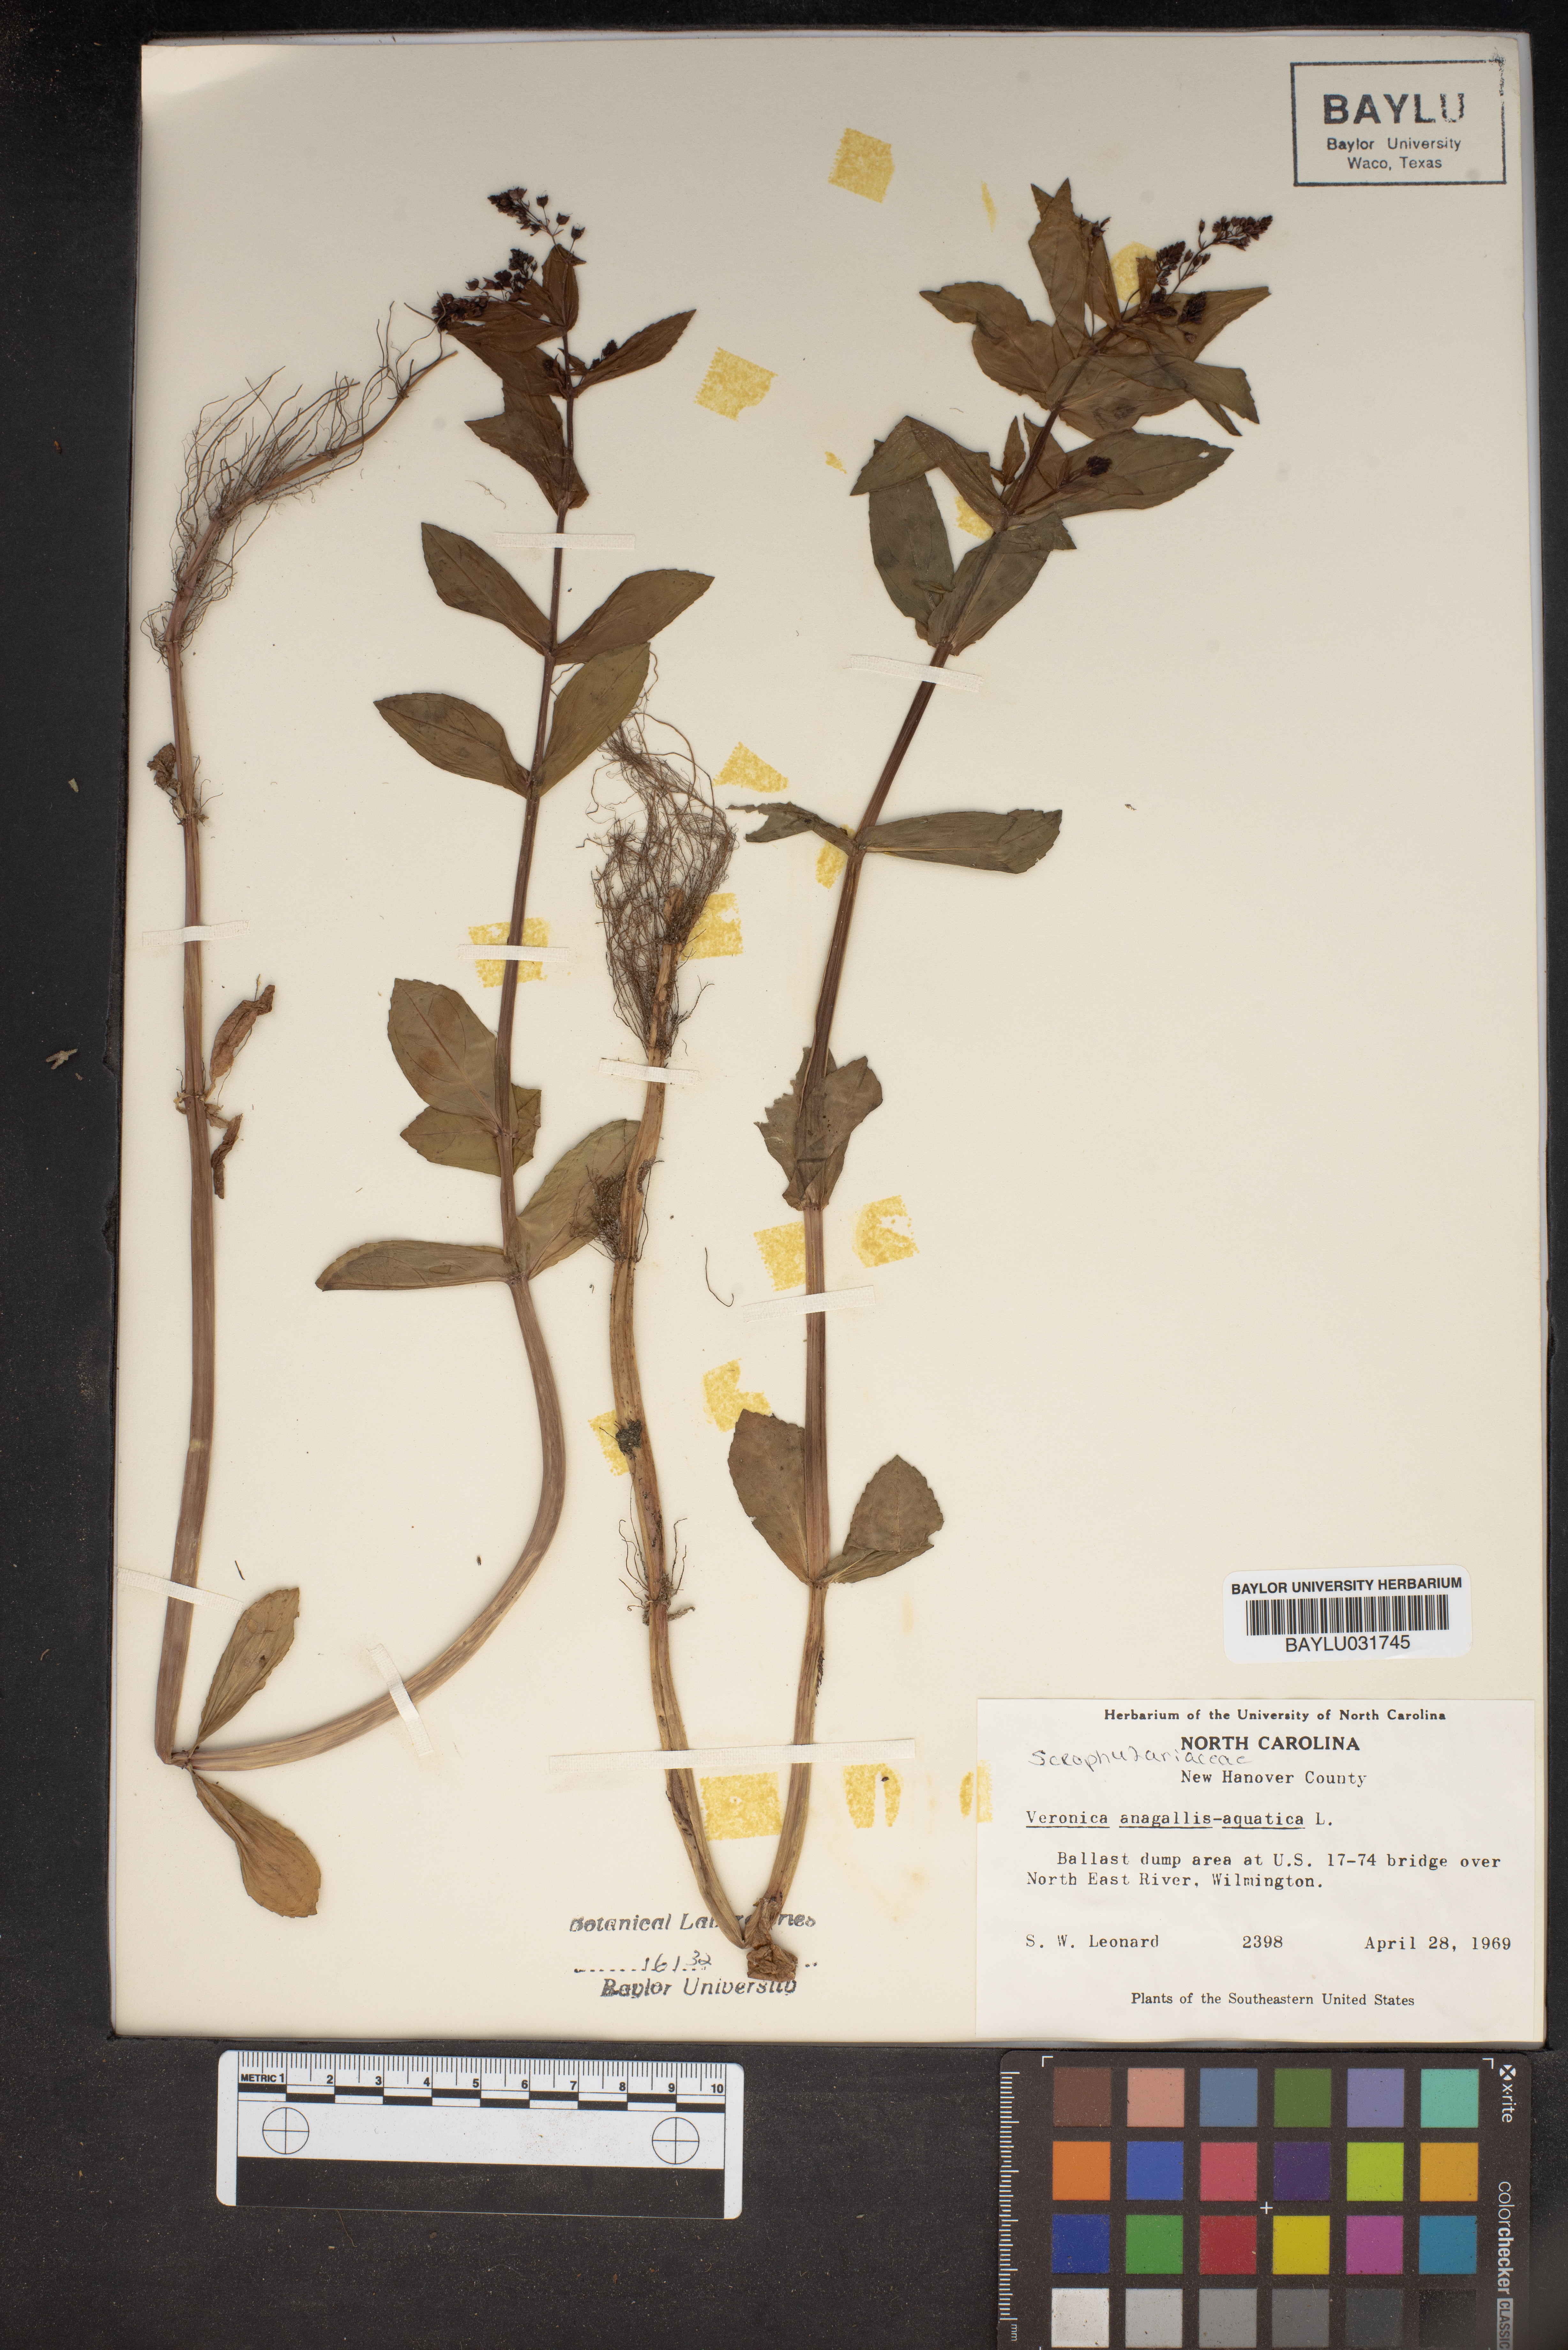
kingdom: Plantae
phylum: Tracheophyta
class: Magnoliopsida
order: Lamiales
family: Plantaginaceae
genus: Veronica
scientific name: Veronica anagallis-aquatica
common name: Water speedwell
